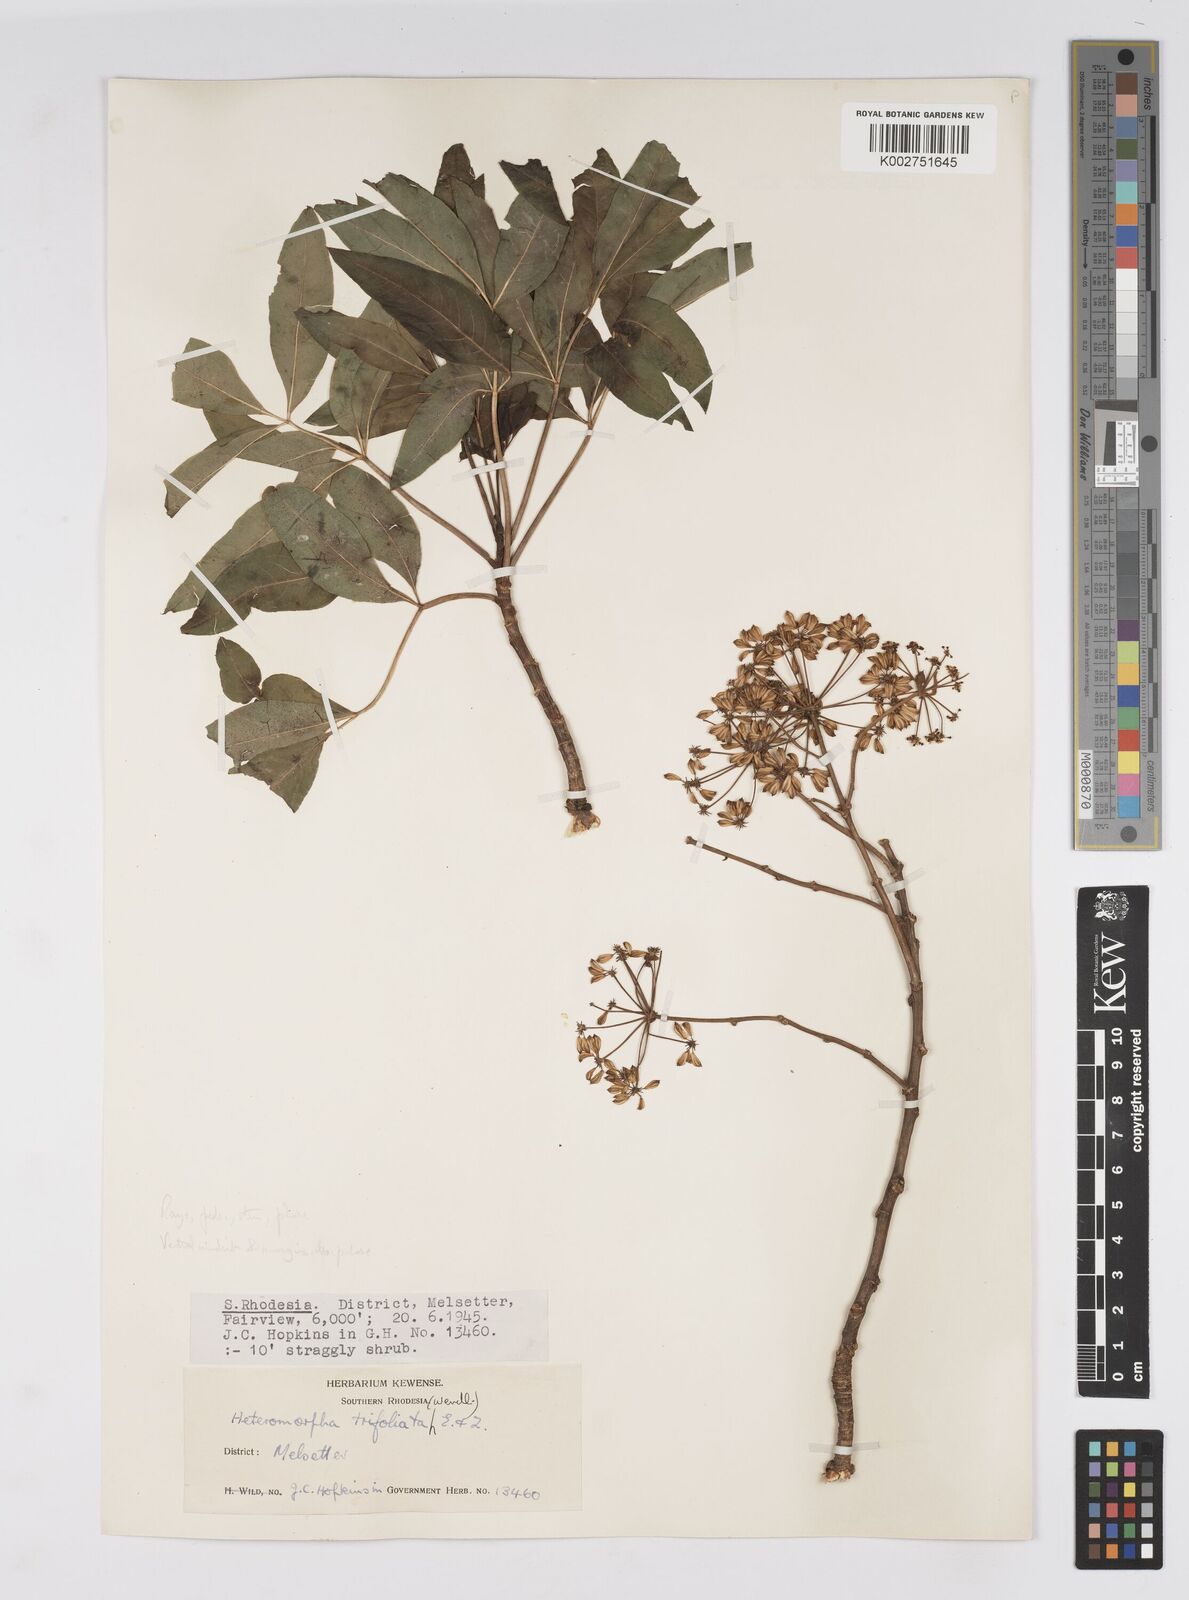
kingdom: Plantae
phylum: Tracheophyta
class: Magnoliopsida
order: Apiales
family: Apiaceae
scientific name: Apiaceae
